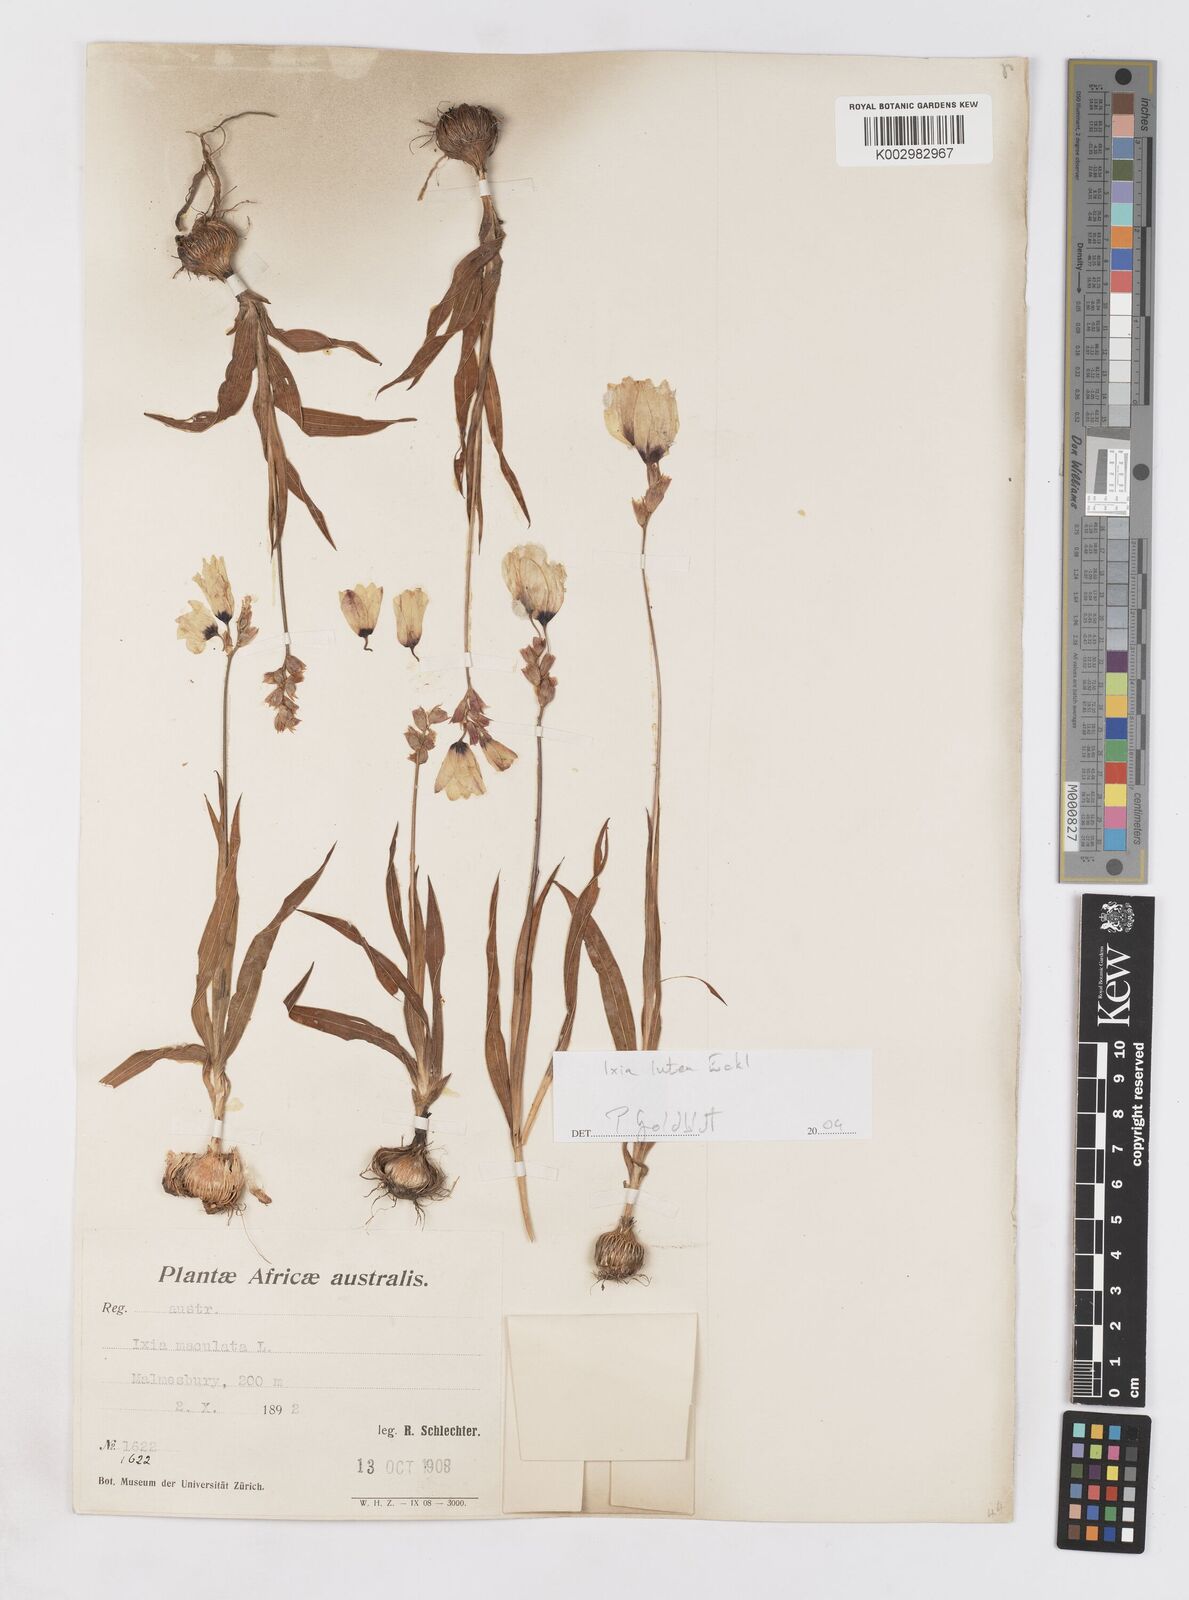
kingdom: Plantae
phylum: Tracheophyta
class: Liliopsida
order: Asparagales
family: Iridaceae
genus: Ixia
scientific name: Ixia abbreviata
